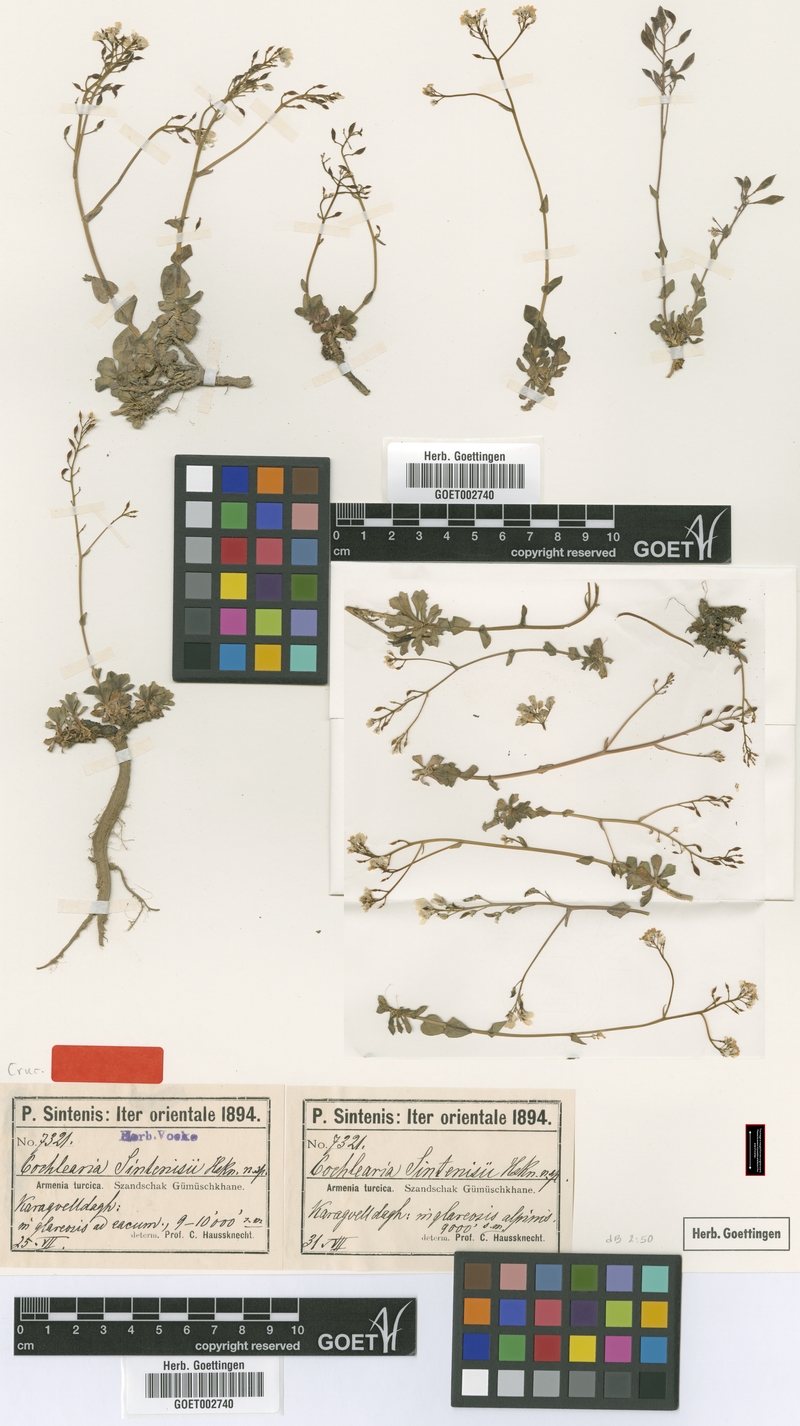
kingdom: Plantae
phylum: Tracheophyta
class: Magnoliopsida
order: Brassicales
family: Brassicaceae
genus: Pseudosempervivum
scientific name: Pseudosempervivum sintenisii
